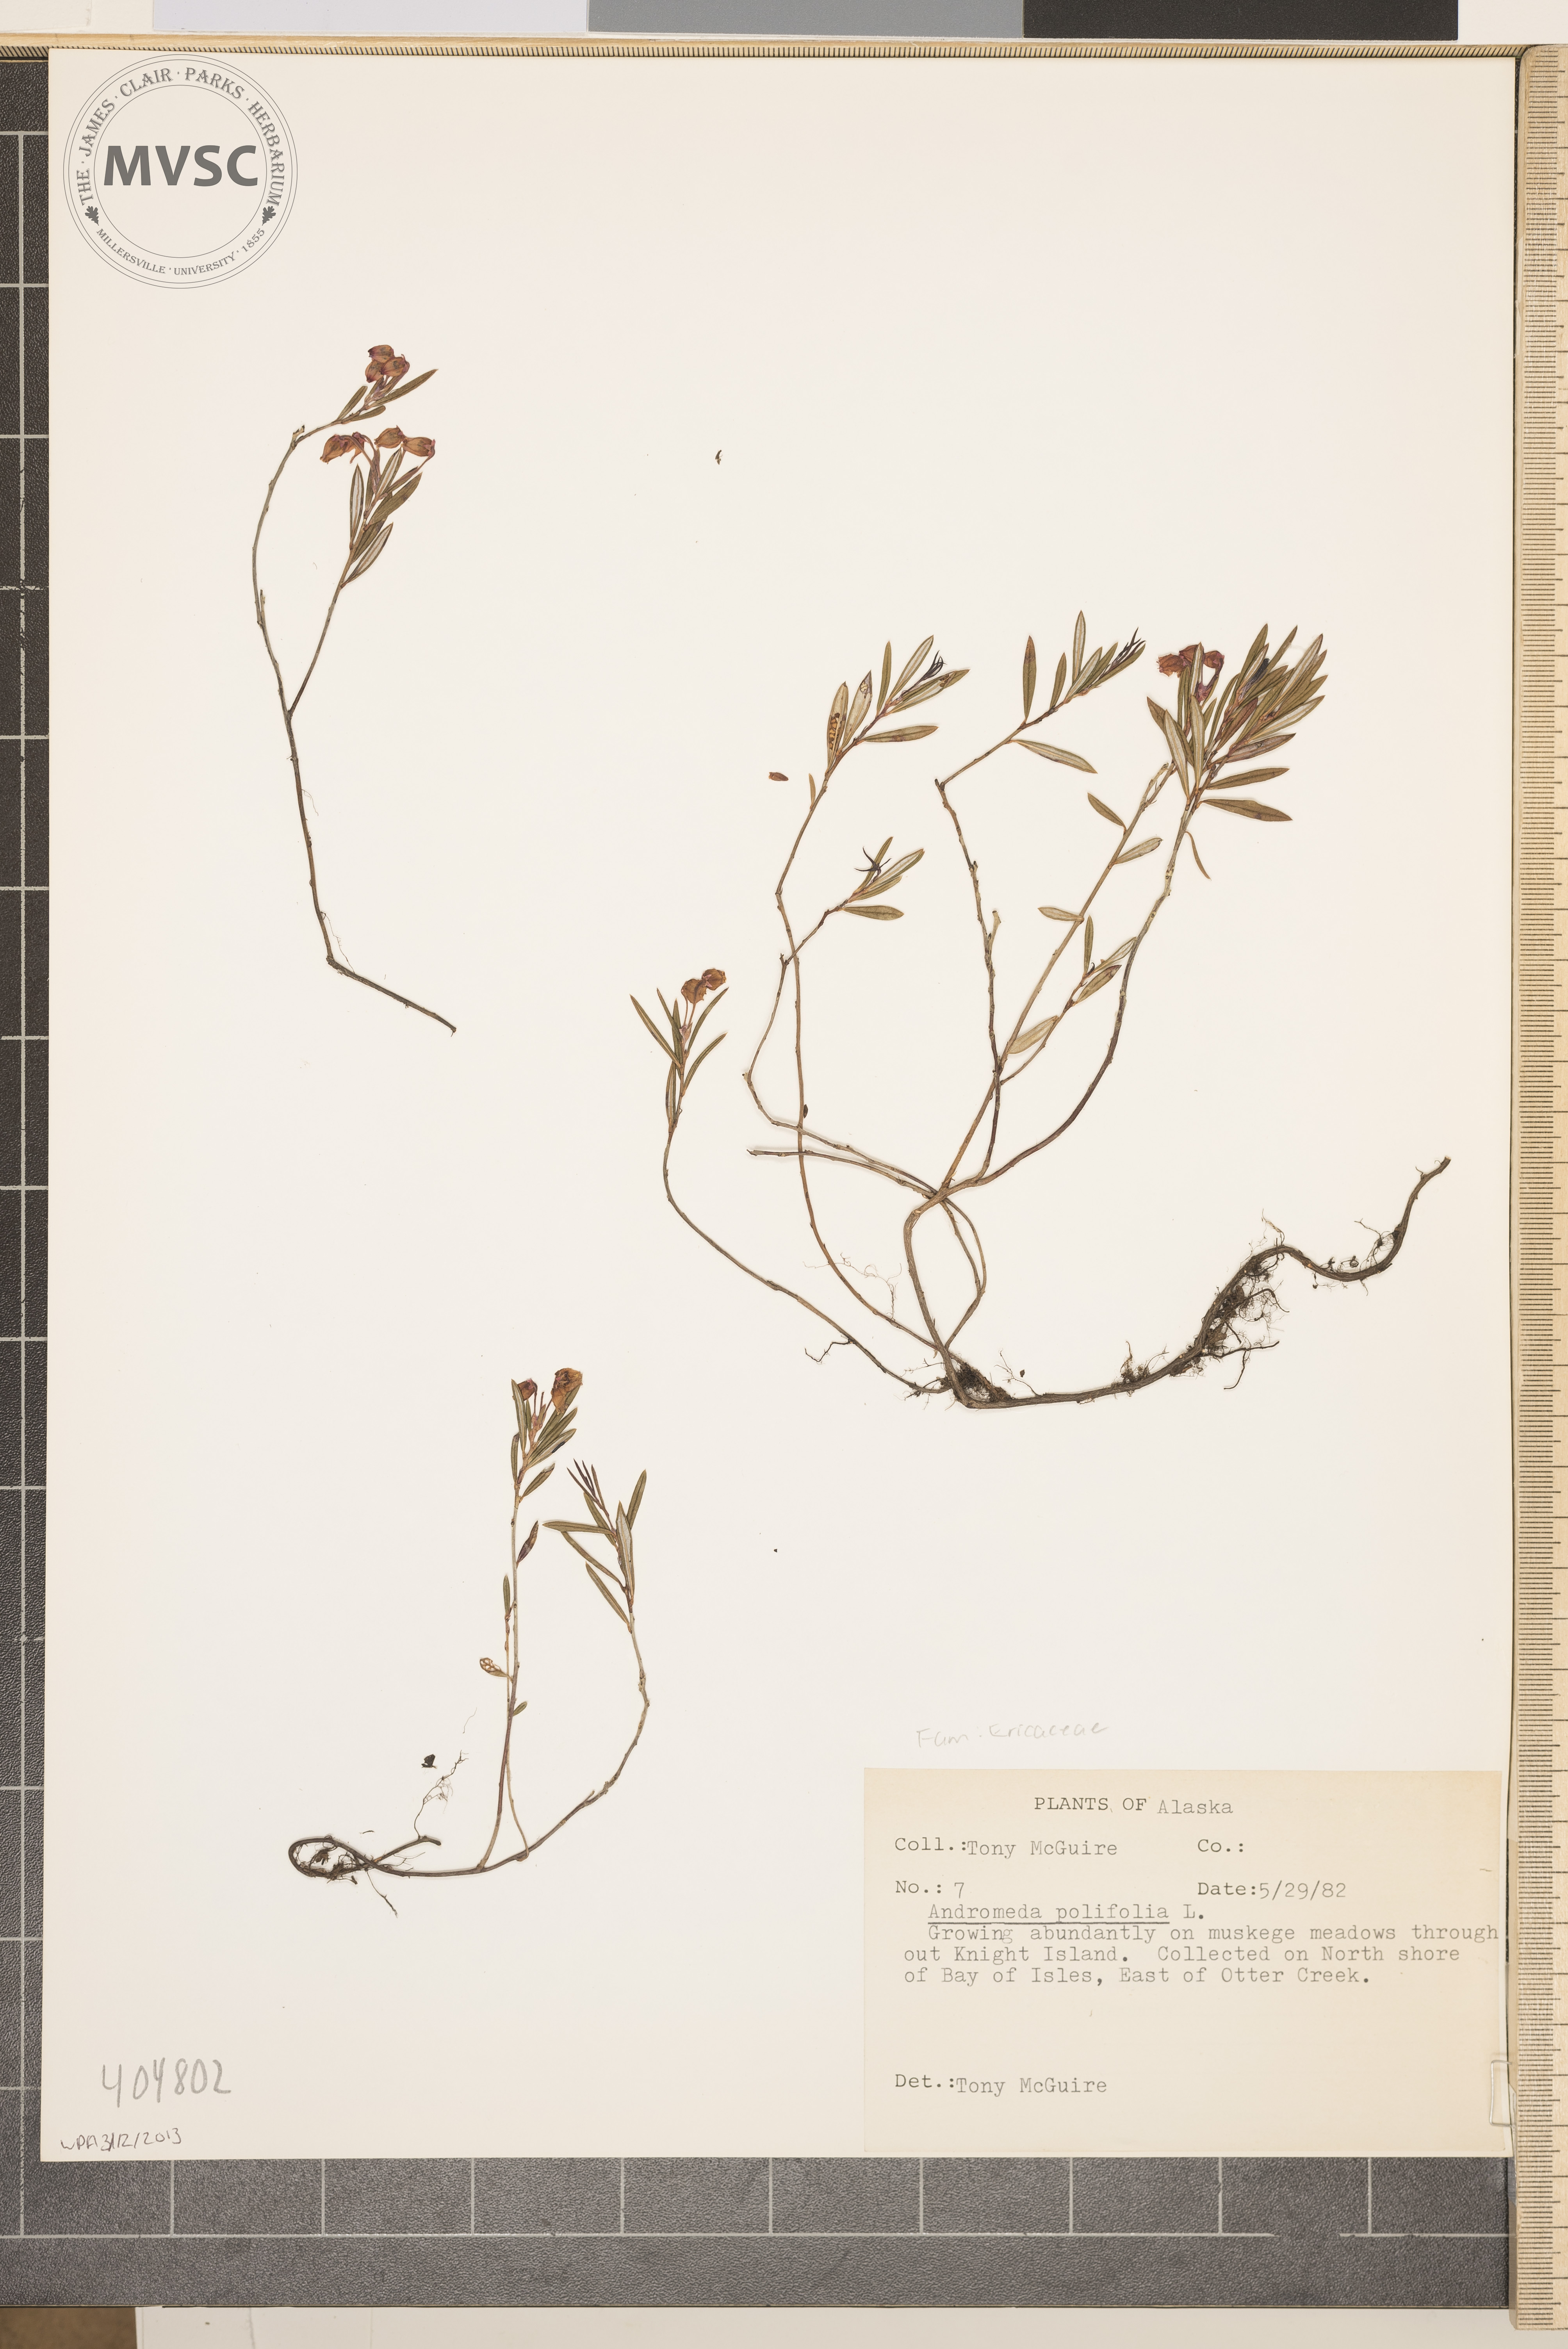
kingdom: Plantae
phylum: Tracheophyta
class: Magnoliopsida
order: Ericales
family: Ericaceae
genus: Andromeda
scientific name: Andromeda polifolia
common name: Bog-rosemary
